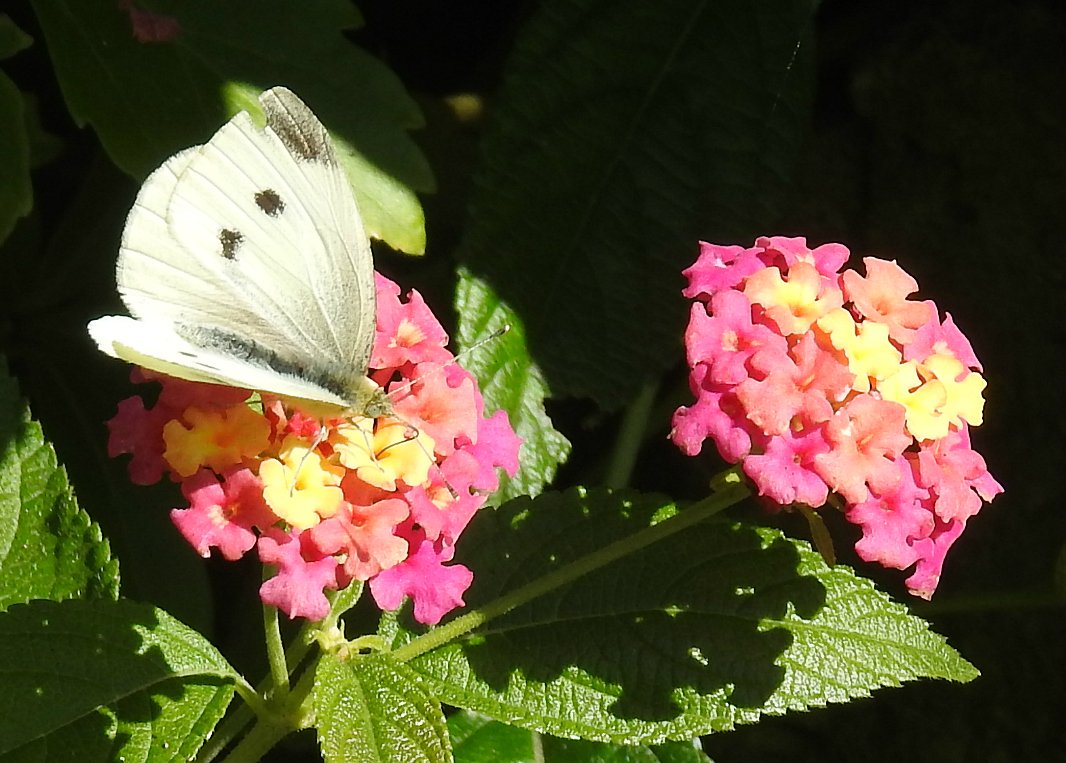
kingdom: Animalia
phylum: Arthropoda
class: Insecta
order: Lepidoptera
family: Pieridae
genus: Pieris
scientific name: Pieris rapae
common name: Cabbage White
